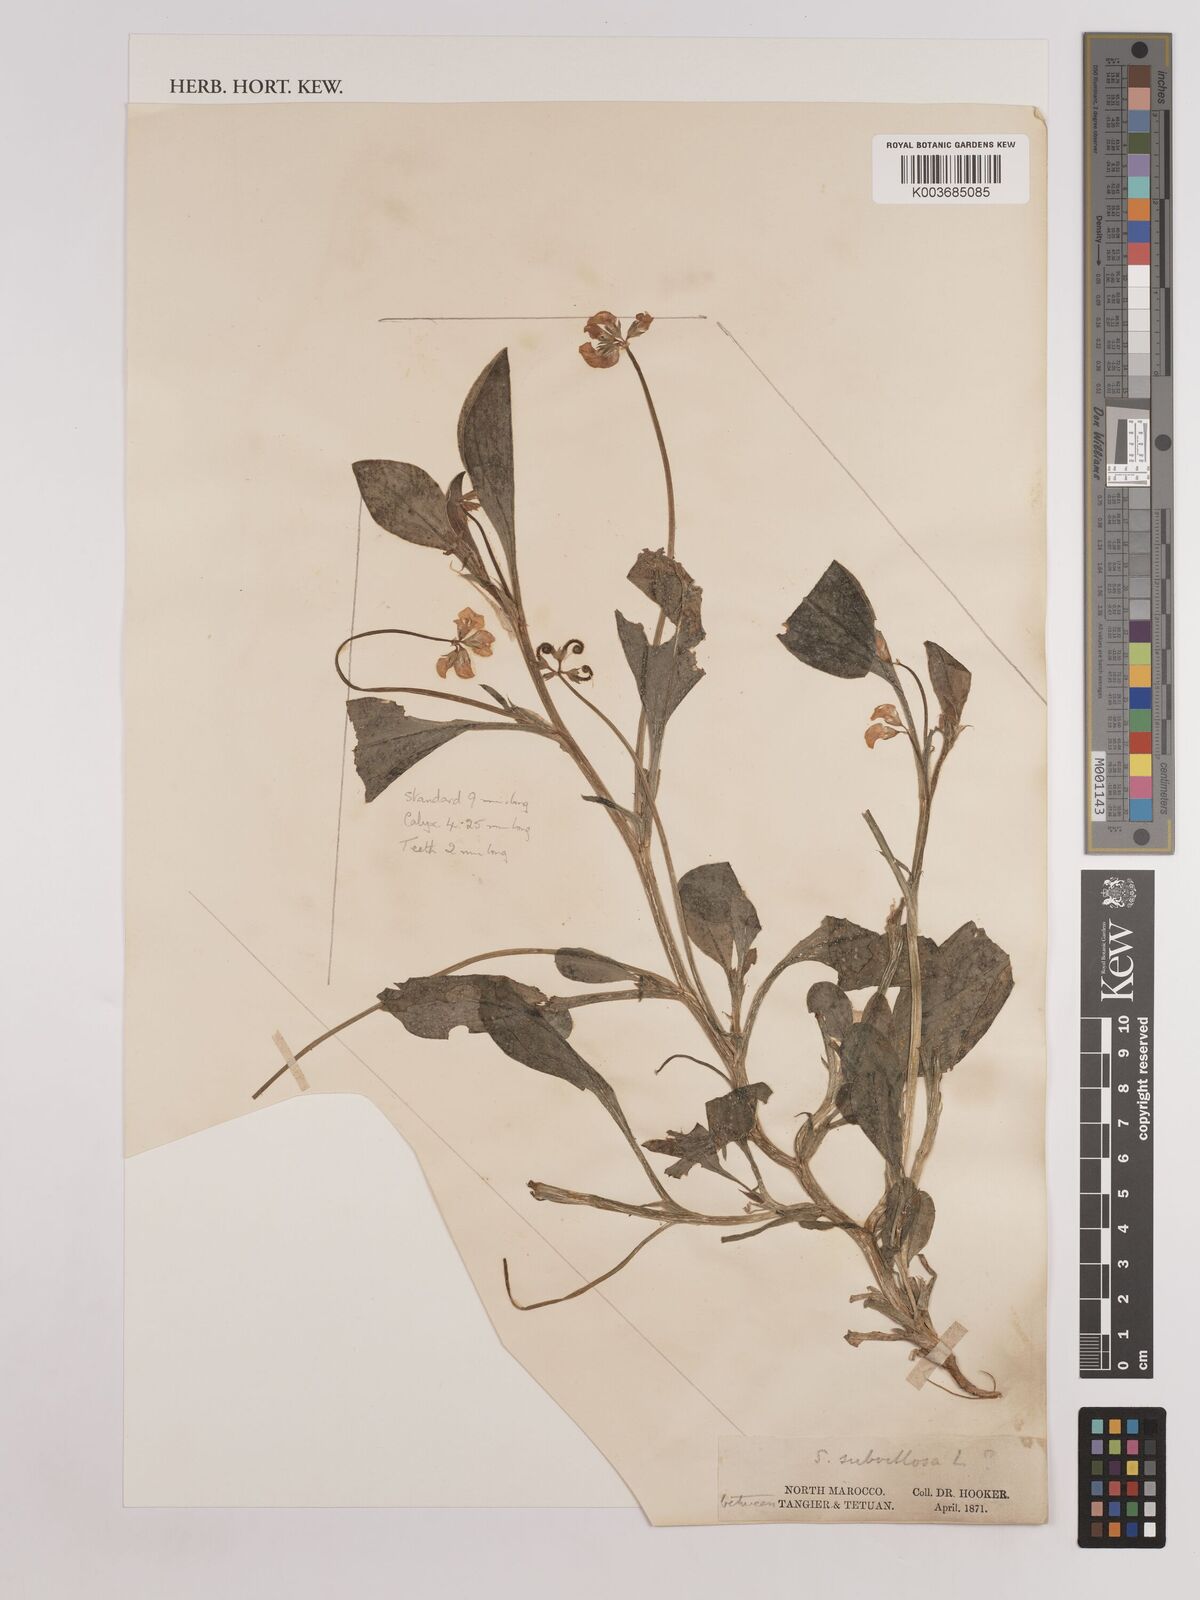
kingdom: Plantae
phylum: Tracheophyta
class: Magnoliopsida
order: Fabales
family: Fabaceae
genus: Scorpiurus
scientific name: Scorpiurus muricatus
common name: Caterpillar-plant
